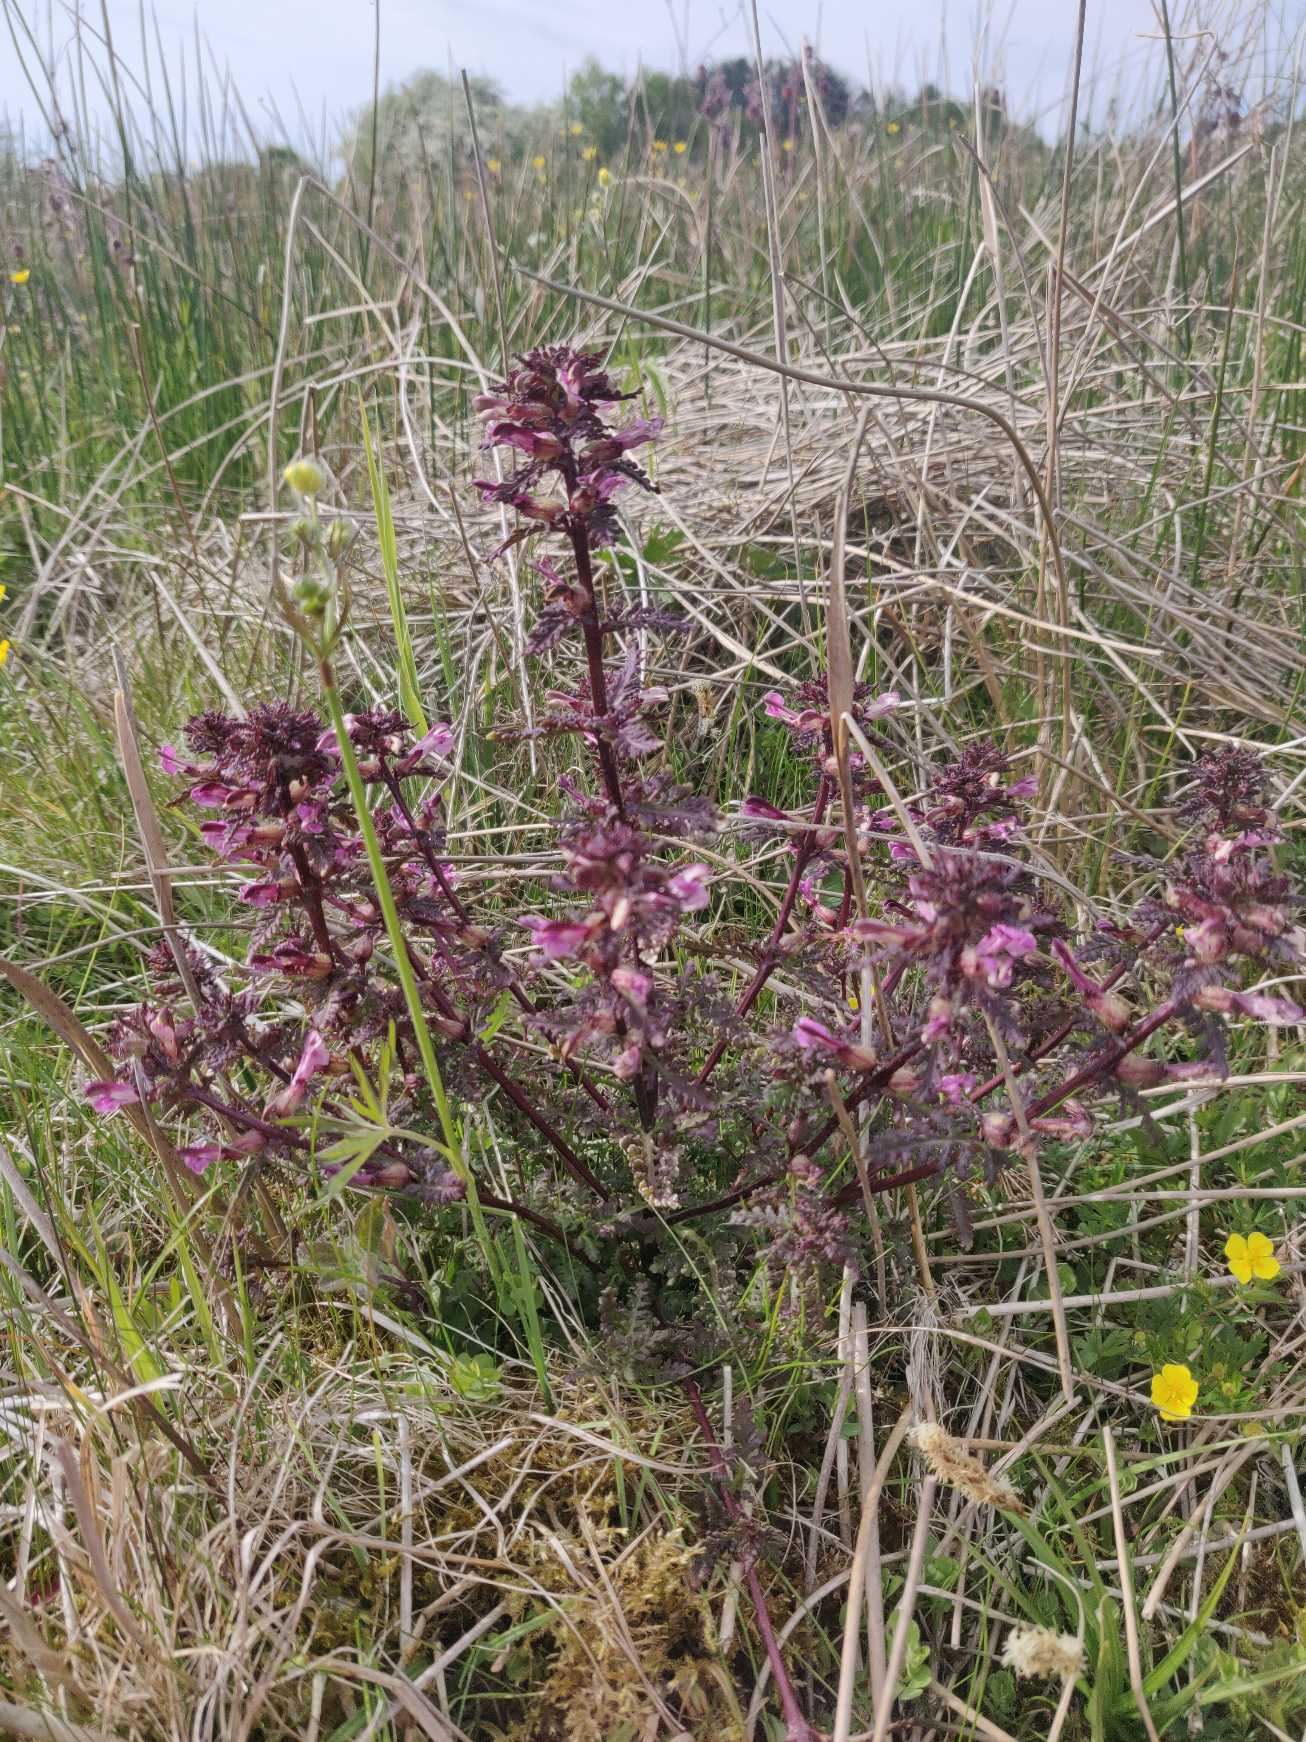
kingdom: Plantae
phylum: Tracheophyta
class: Magnoliopsida
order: Lamiales
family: Orobanchaceae
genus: Pedicularis
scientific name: Pedicularis palustris
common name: Eng-troldurt (underart)
